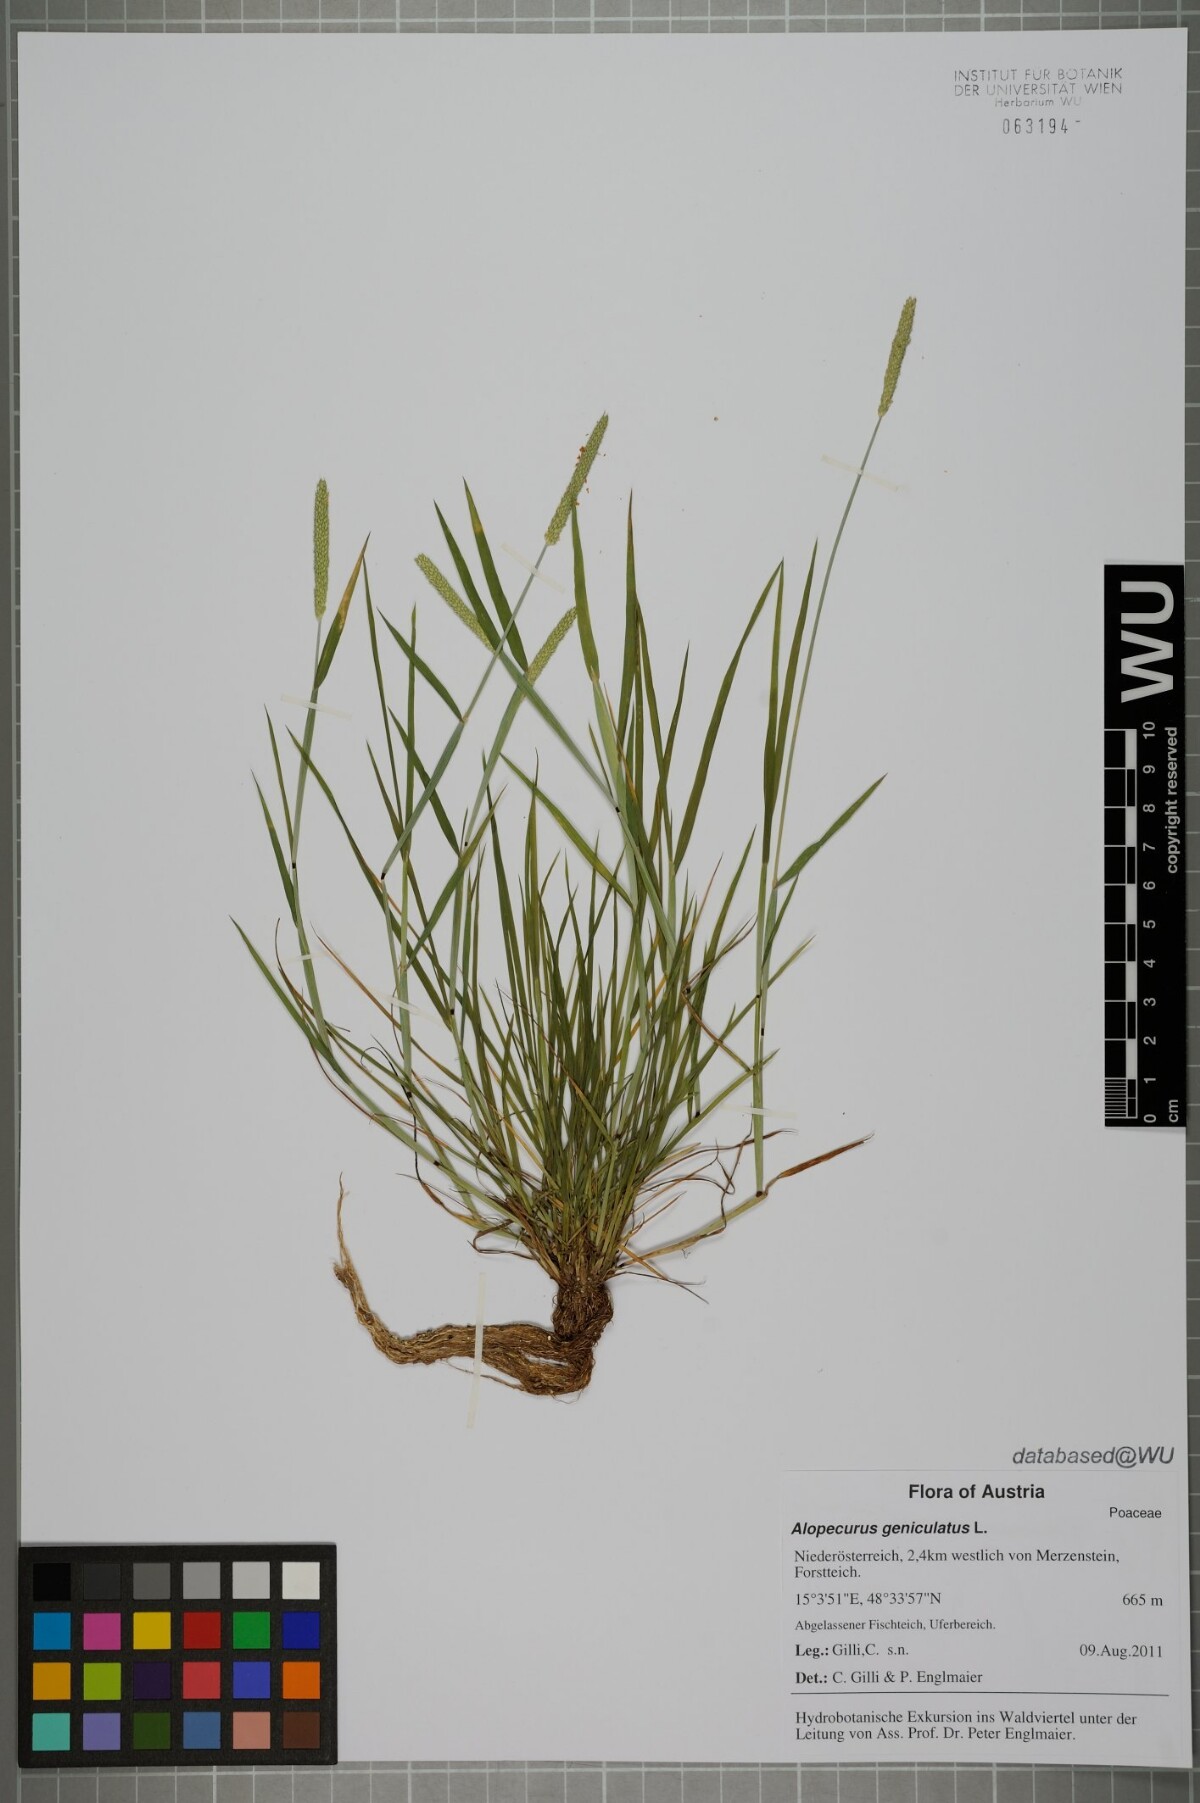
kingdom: Plantae
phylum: Tracheophyta
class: Liliopsida
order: Poales
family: Poaceae
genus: Alopecurus
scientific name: Alopecurus geniculatus
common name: Water foxtail
